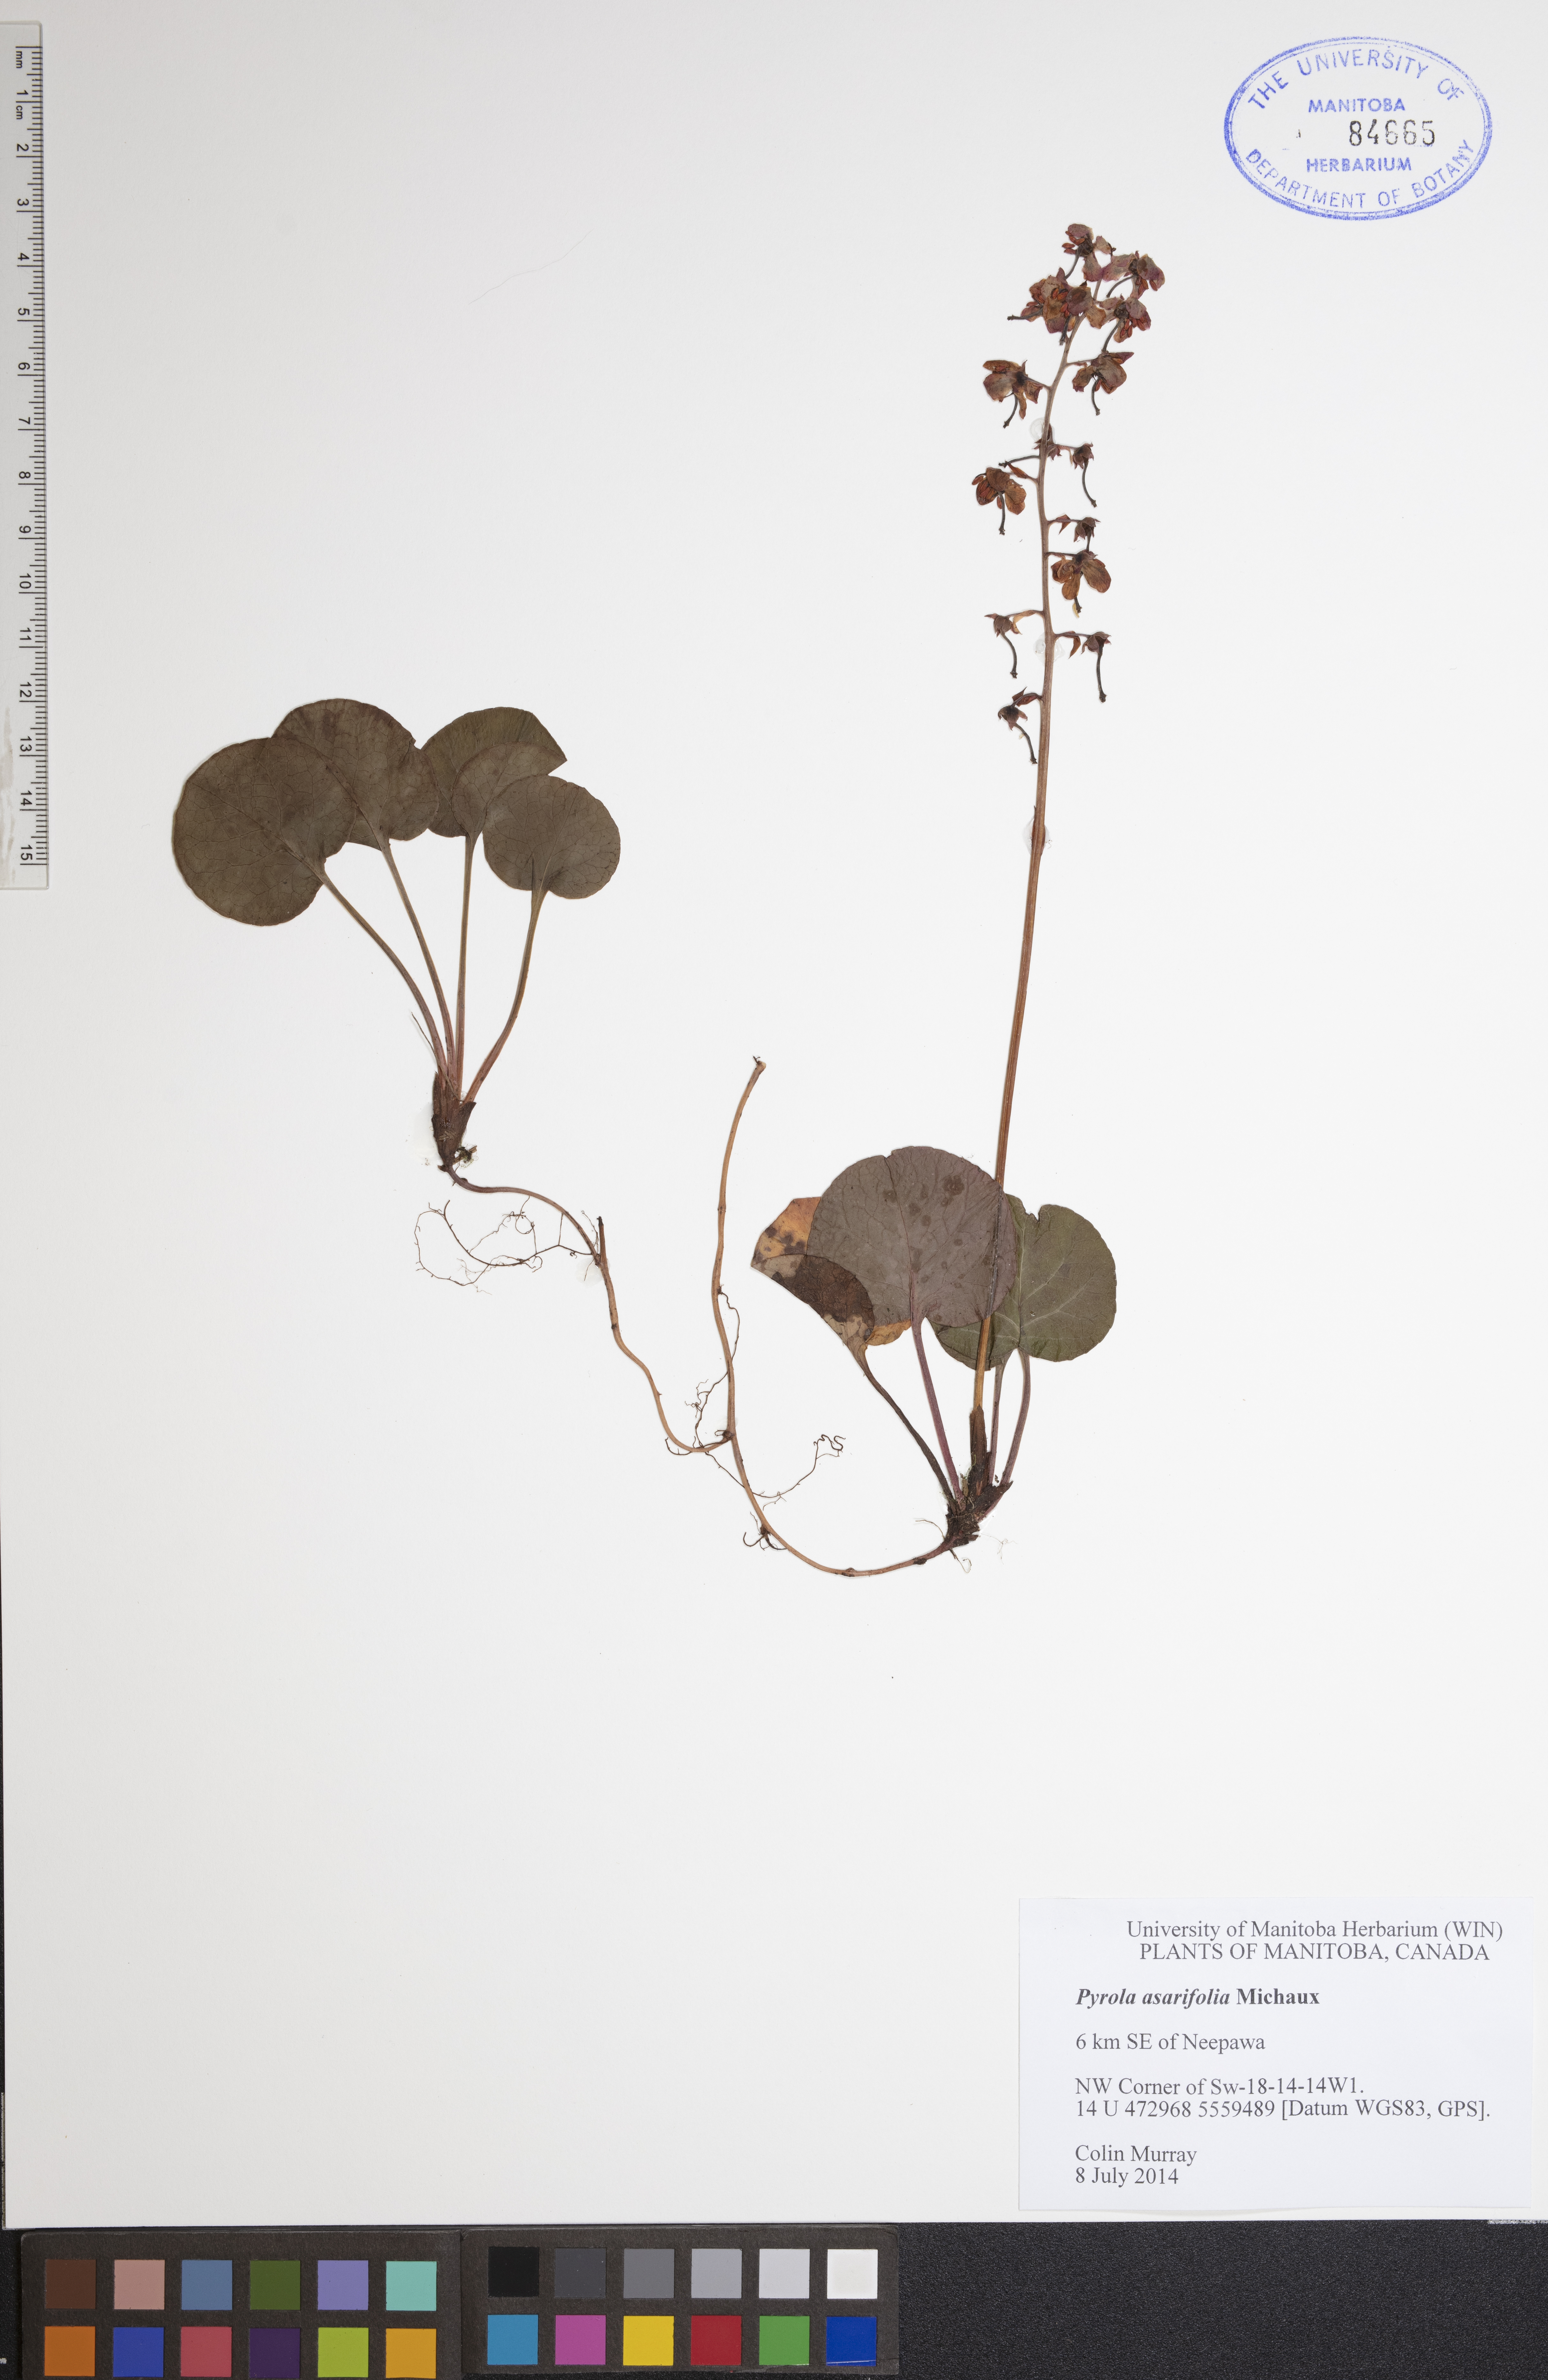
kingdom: Plantae
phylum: Tracheophyta
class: Magnoliopsida
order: Ericales
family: Ericaceae
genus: Pyrola
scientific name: Pyrola asarifolia
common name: Bog wintergreen
